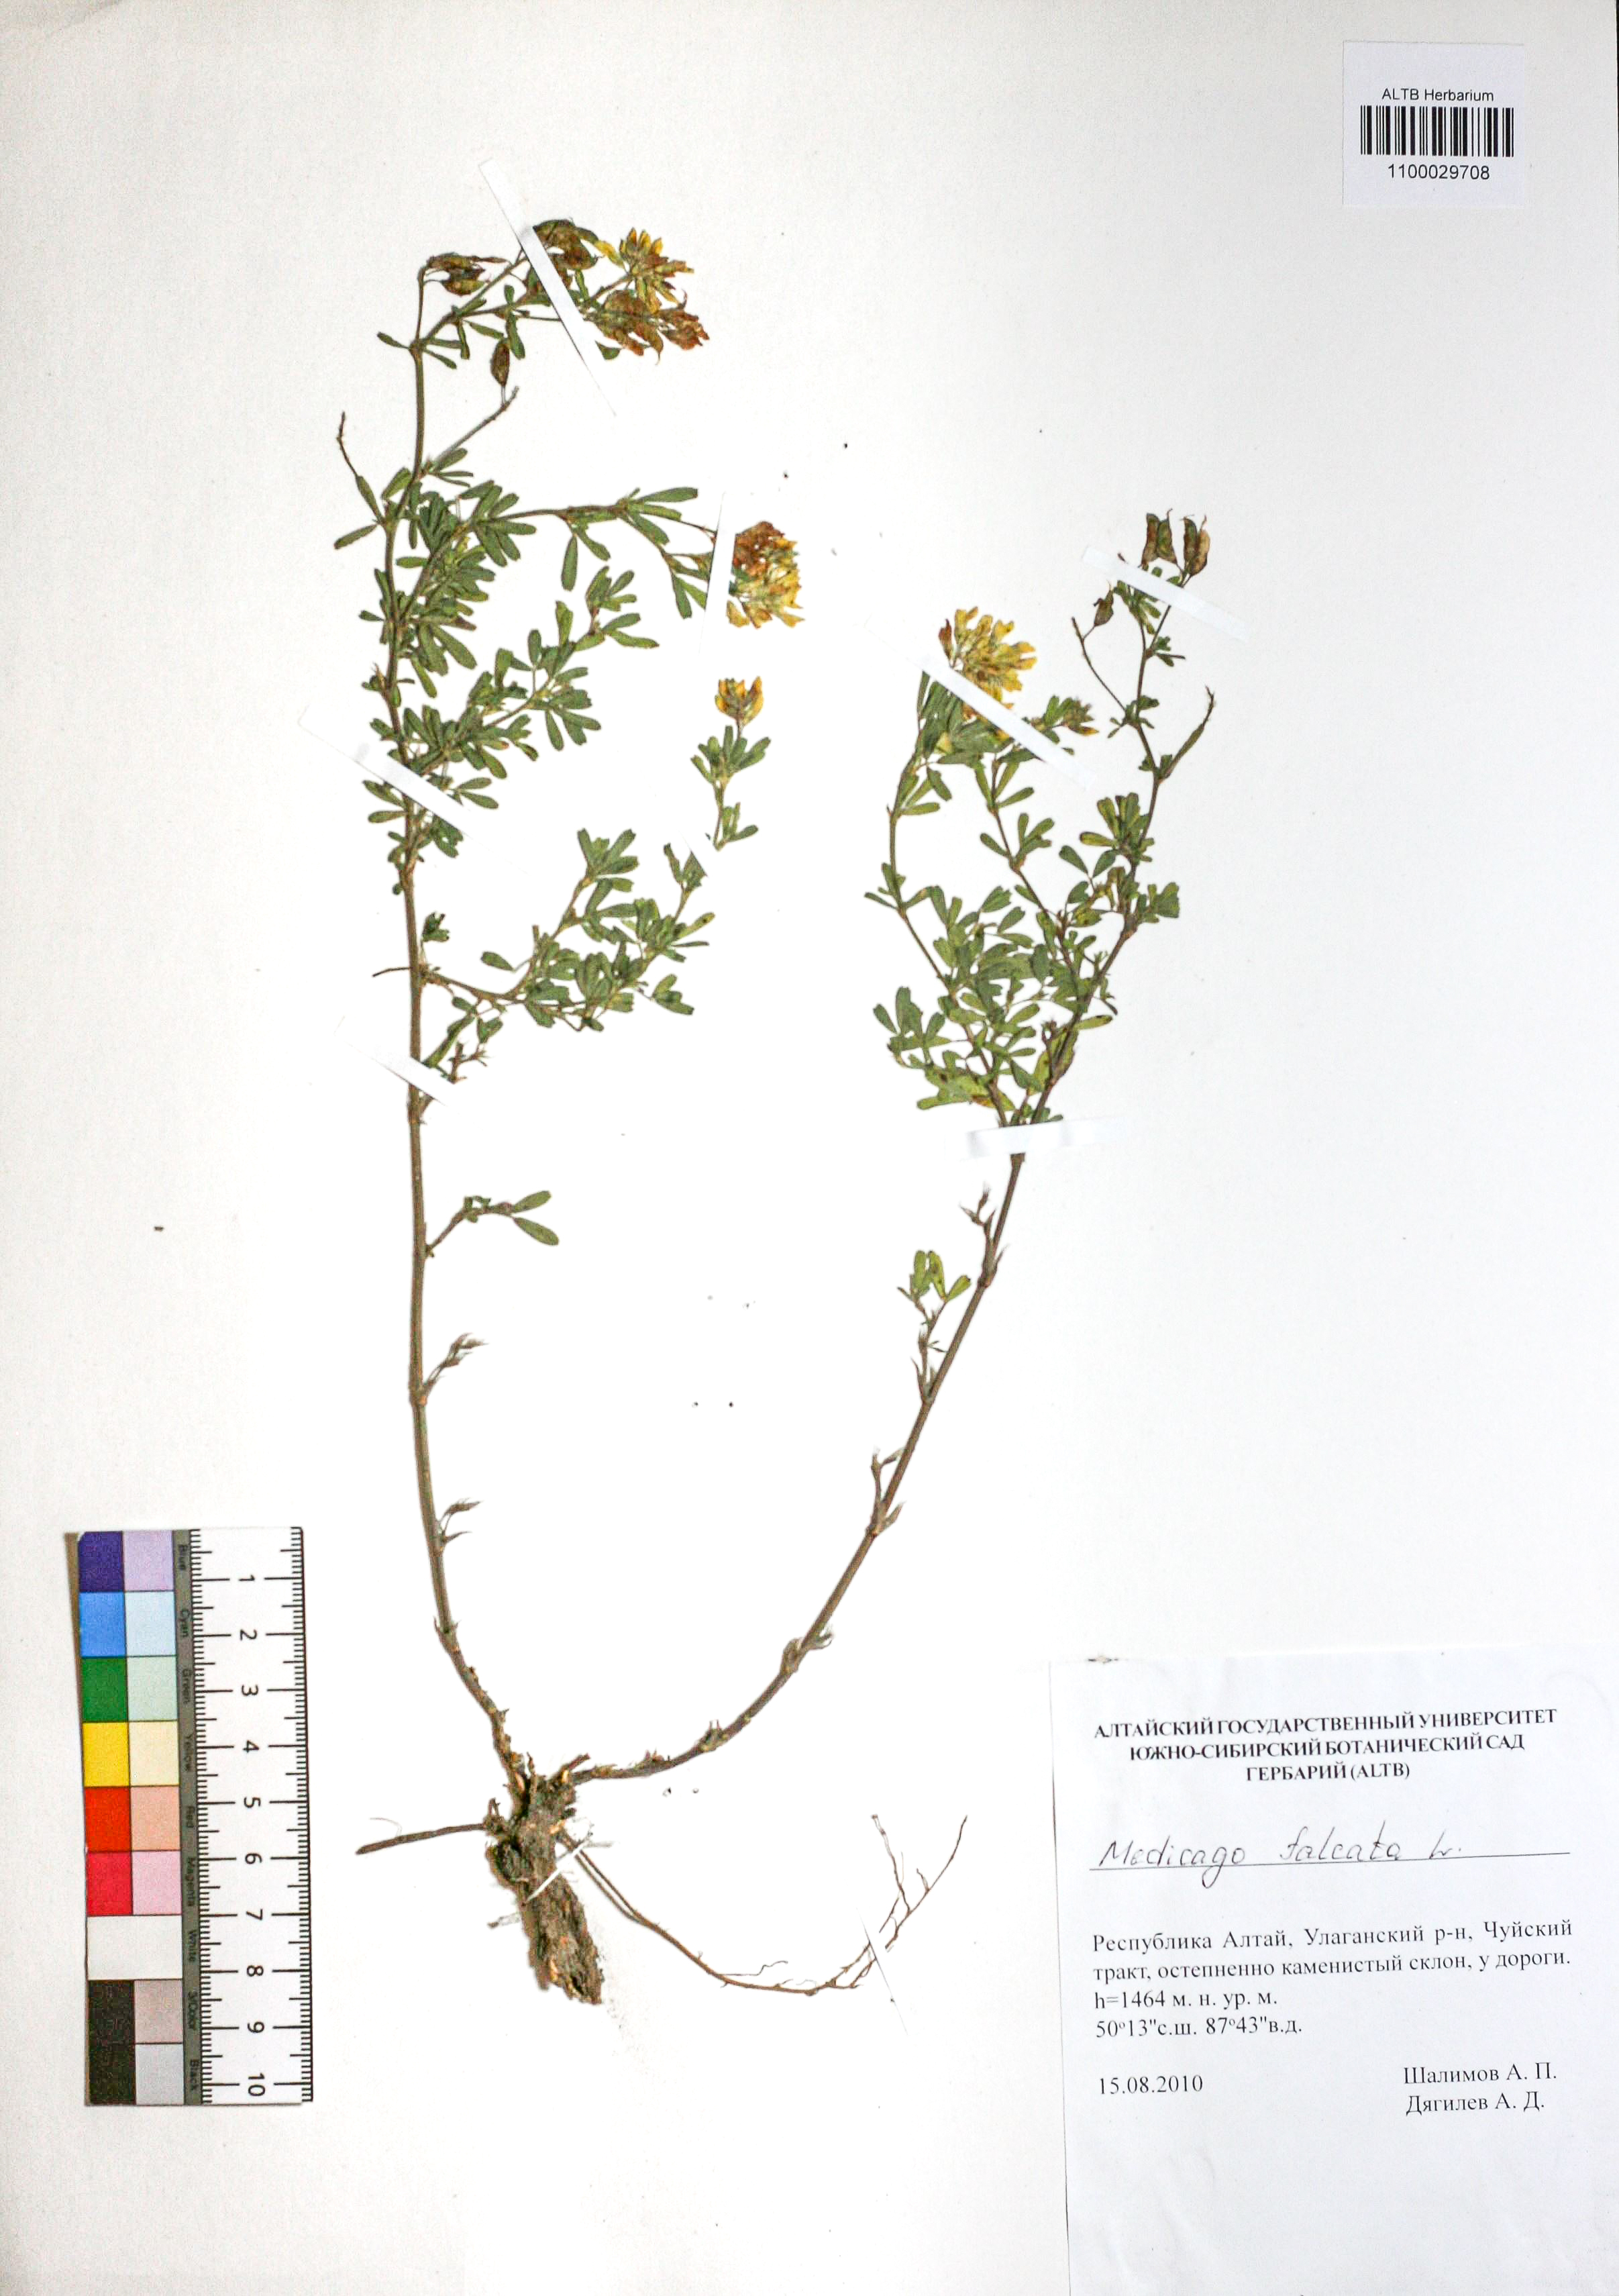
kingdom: Plantae
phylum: Tracheophyta
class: Magnoliopsida
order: Fabales
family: Fabaceae
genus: Medicago
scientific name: Medicago falcata
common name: Sickle medick
